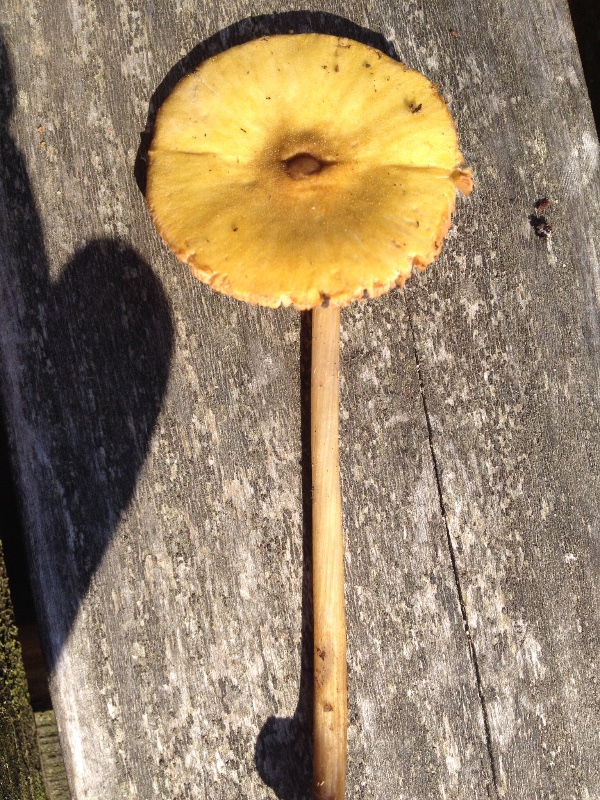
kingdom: Fungi
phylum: Basidiomycota
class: Agaricomycetes
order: Agaricales
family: Pluteaceae
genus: Pluteus
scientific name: Pluteus leoninus
